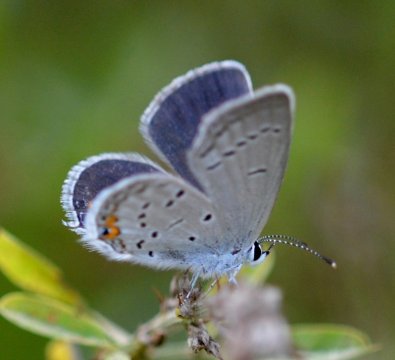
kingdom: Animalia
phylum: Arthropoda
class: Insecta
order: Lepidoptera
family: Lycaenidae
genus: Elkalyce
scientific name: Elkalyce comyntas
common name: Eastern Tailed-Blue
